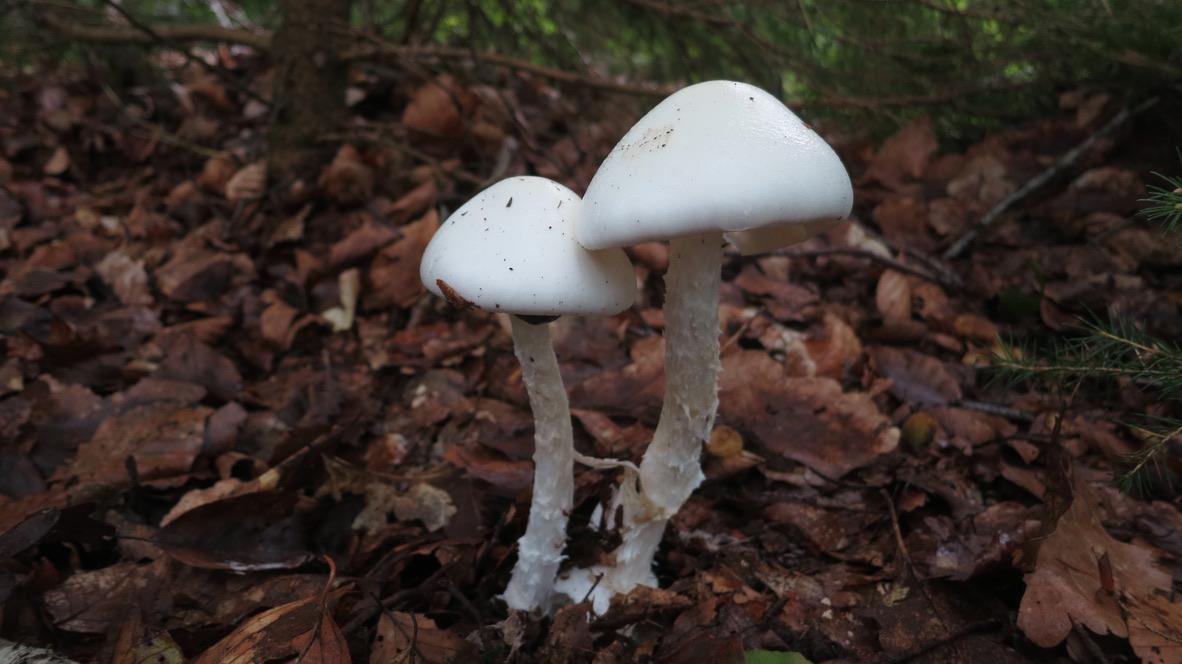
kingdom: Fungi
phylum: Basidiomycota
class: Agaricomycetes
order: Agaricales
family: Amanitaceae
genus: Amanita
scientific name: Amanita virosa
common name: snehvid fluesvamp
